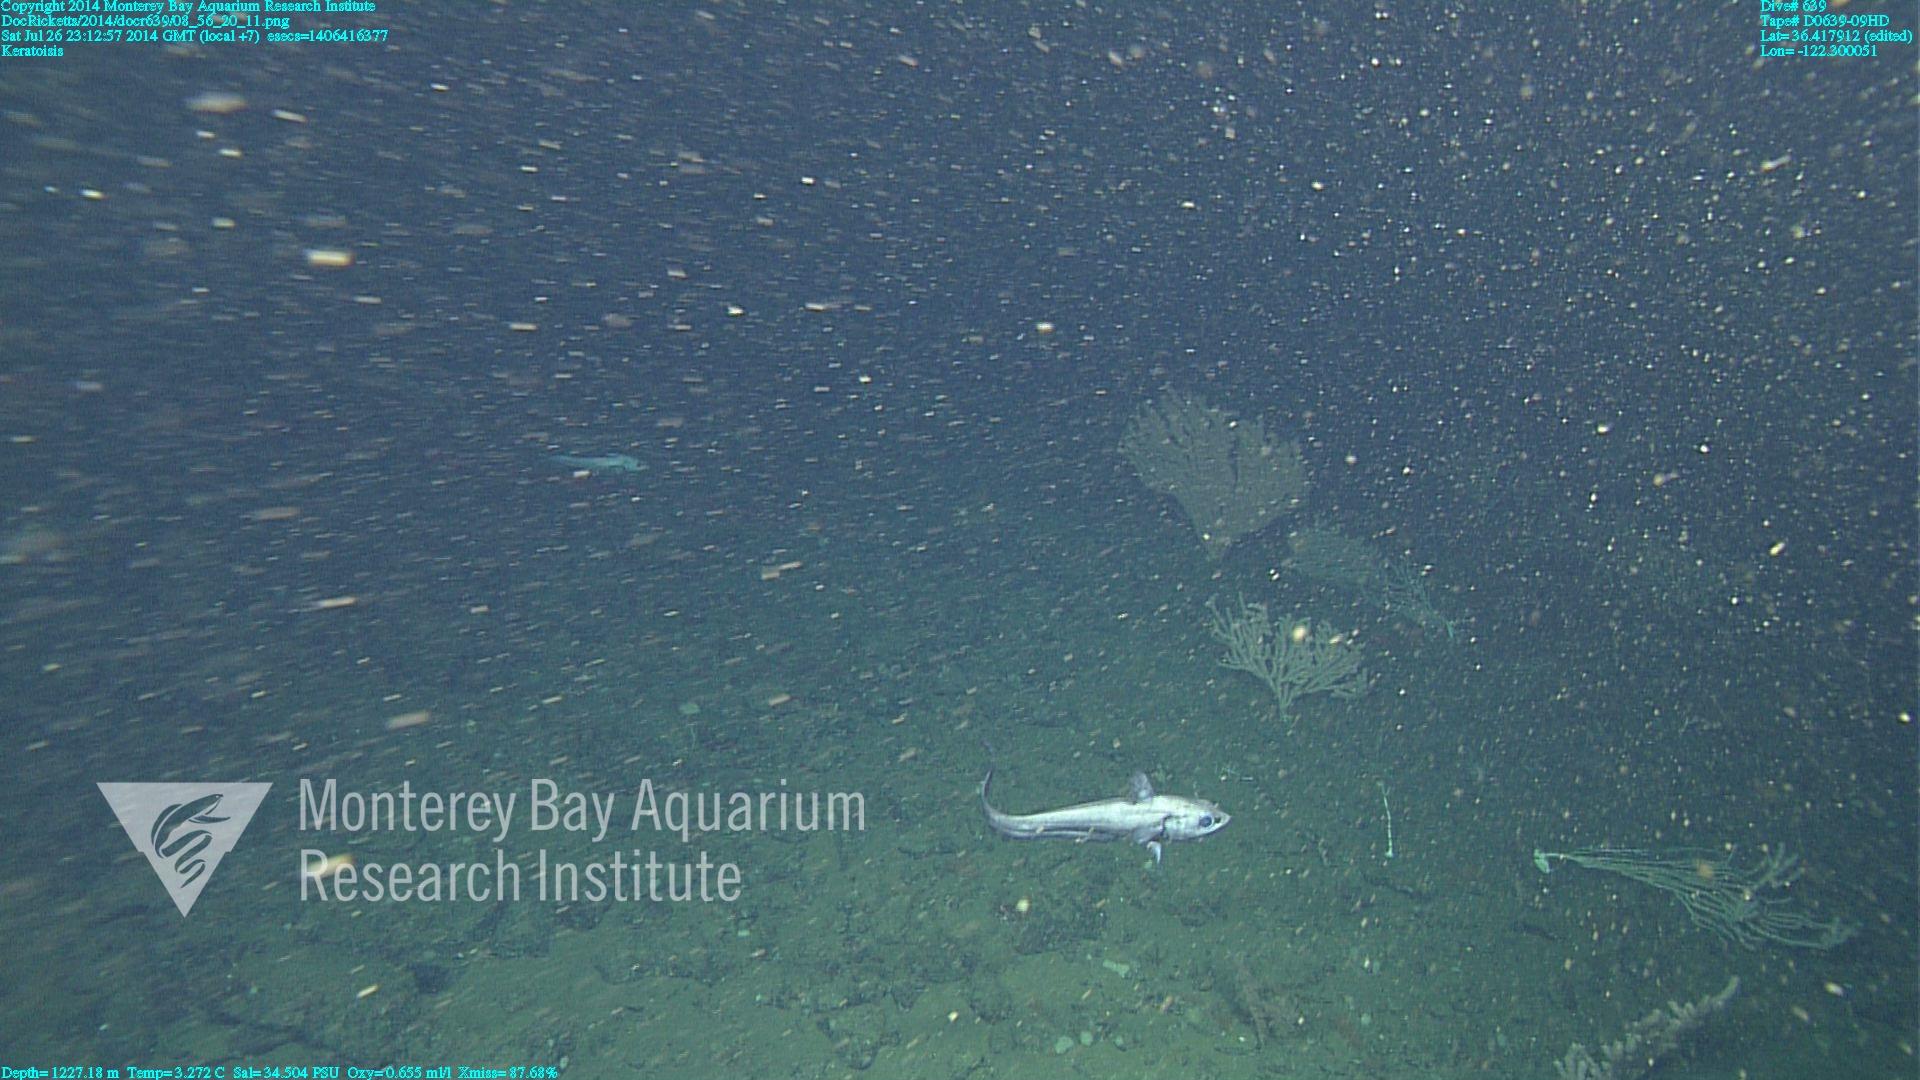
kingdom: Animalia
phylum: Cnidaria
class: Anthozoa
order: Scleralcyonacea
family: Keratoisididae
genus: Keratoisis
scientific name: Keratoisis
